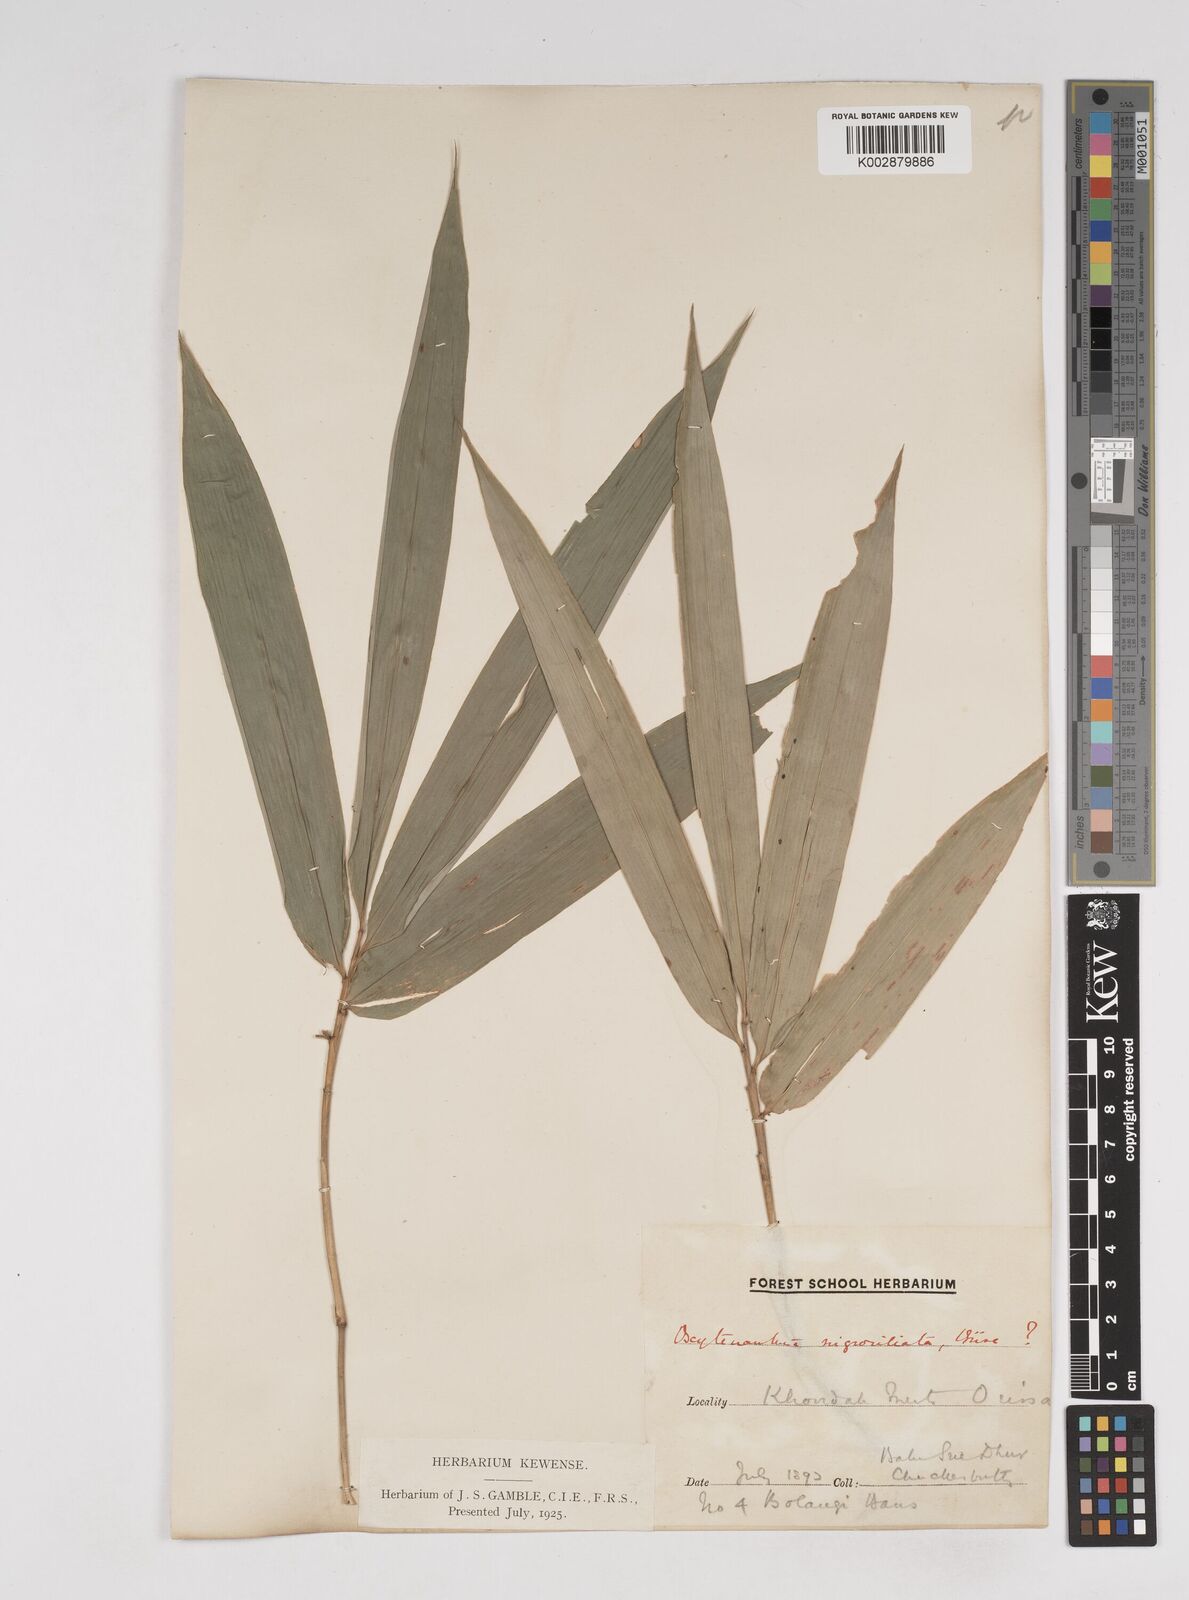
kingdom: Plantae
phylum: Tracheophyta
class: Liliopsida
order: Poales
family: Poaceae
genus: Gigantochloa
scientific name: Gigantochloa
